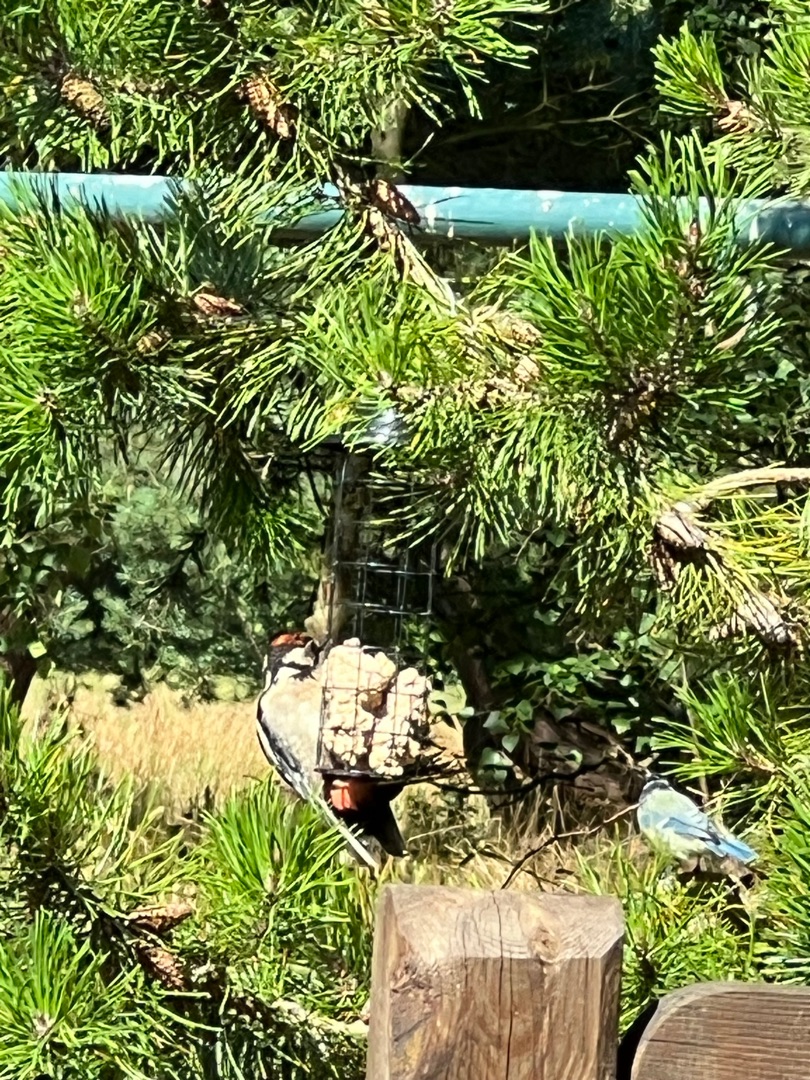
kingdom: Animalia
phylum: Chordata
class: Aves
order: Piciformes
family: Picidae
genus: Dendrocopos
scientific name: Dendrocopos major
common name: Stor flagspætte
